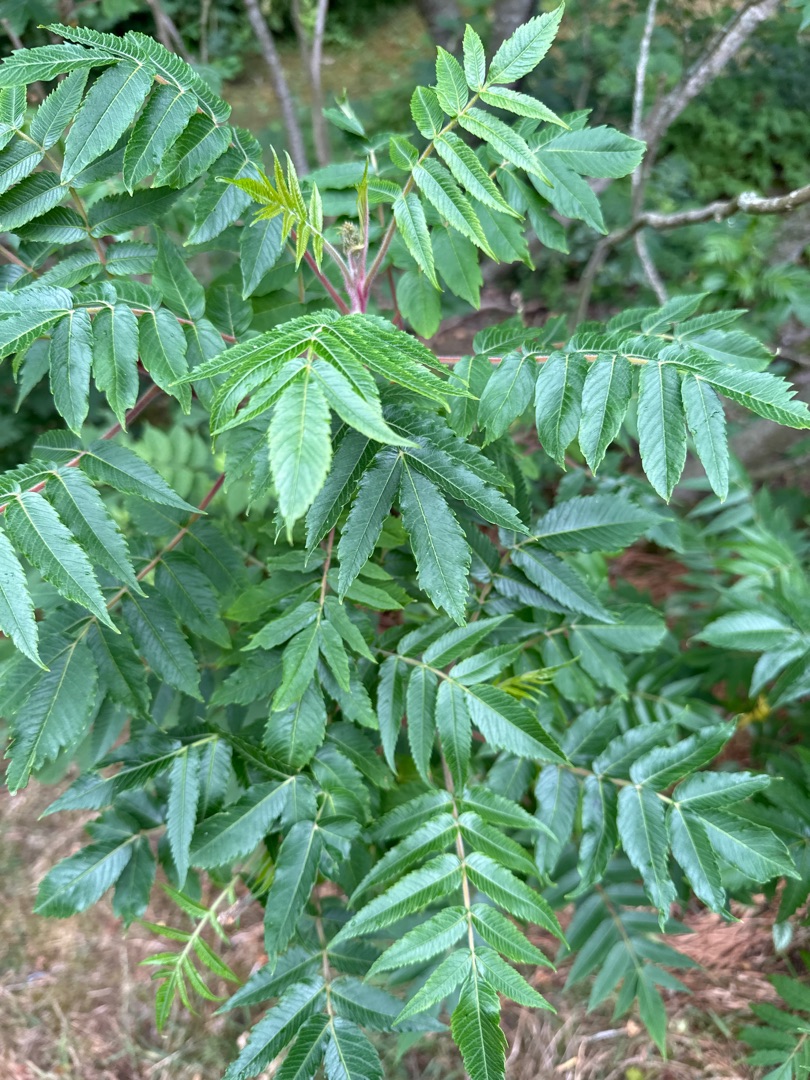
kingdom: Plantae
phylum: Tracheophyta
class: Magnoliopsida
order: Sapindales
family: Anacardiaceae
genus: Rhus
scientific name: Rhus typhina
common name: Hjortetaktræ
